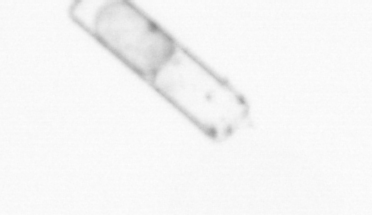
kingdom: Chromista
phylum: Ochrophyta
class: Bacillariophyceae
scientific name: Bacillariophyceae
